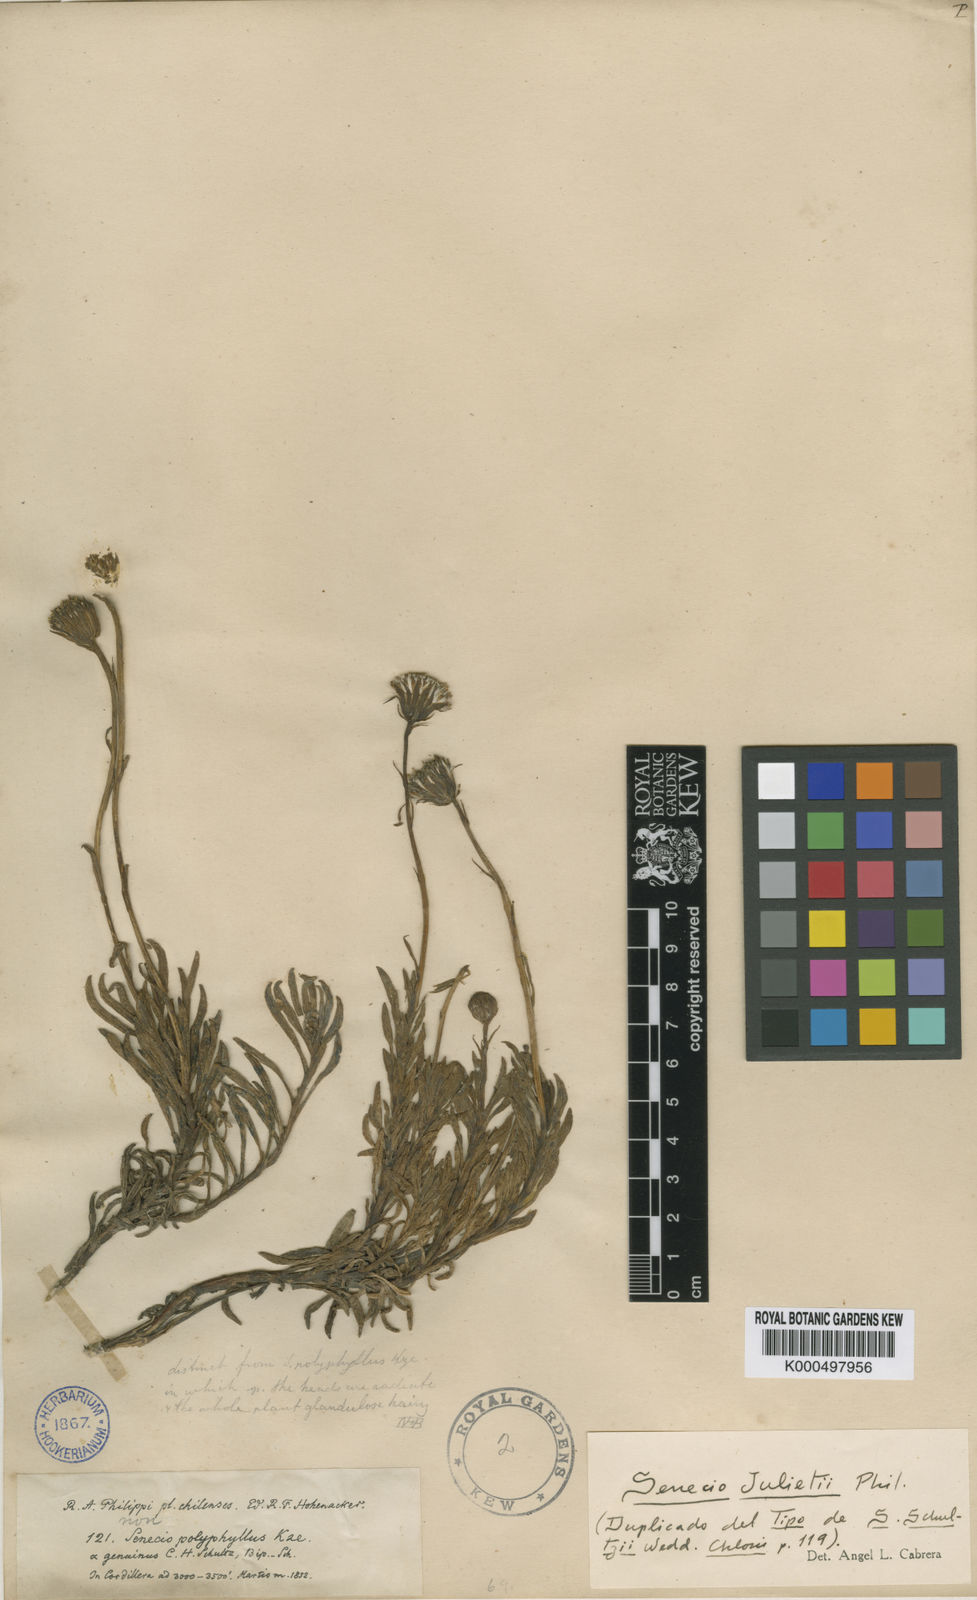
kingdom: Plantae
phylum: Tracheophyta
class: Magnoliopsida
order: Asterales
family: Asteraceae
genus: Senecio
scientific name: Senecio bipontinii
